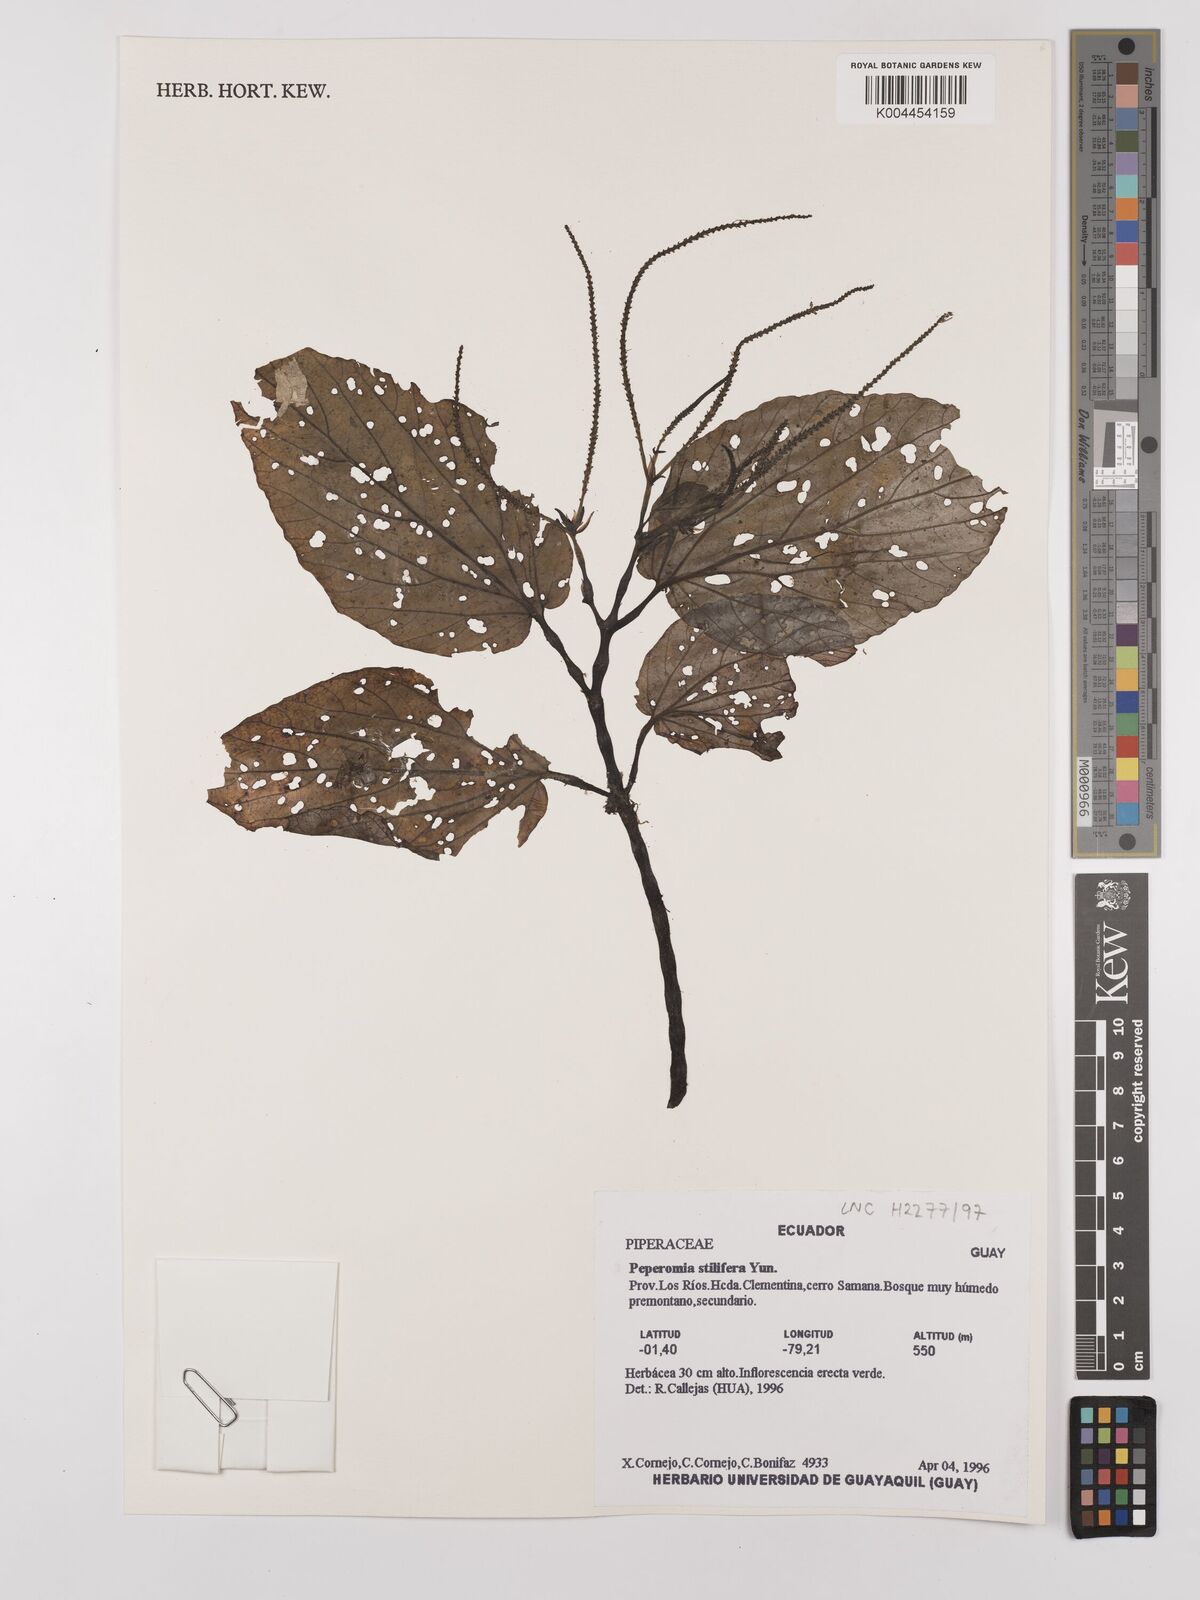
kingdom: Plantae
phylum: Tracheophyta
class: Magnoliopsida
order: Piperales
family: Piperaceae
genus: Peperomia
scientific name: Peperomia stilifera
